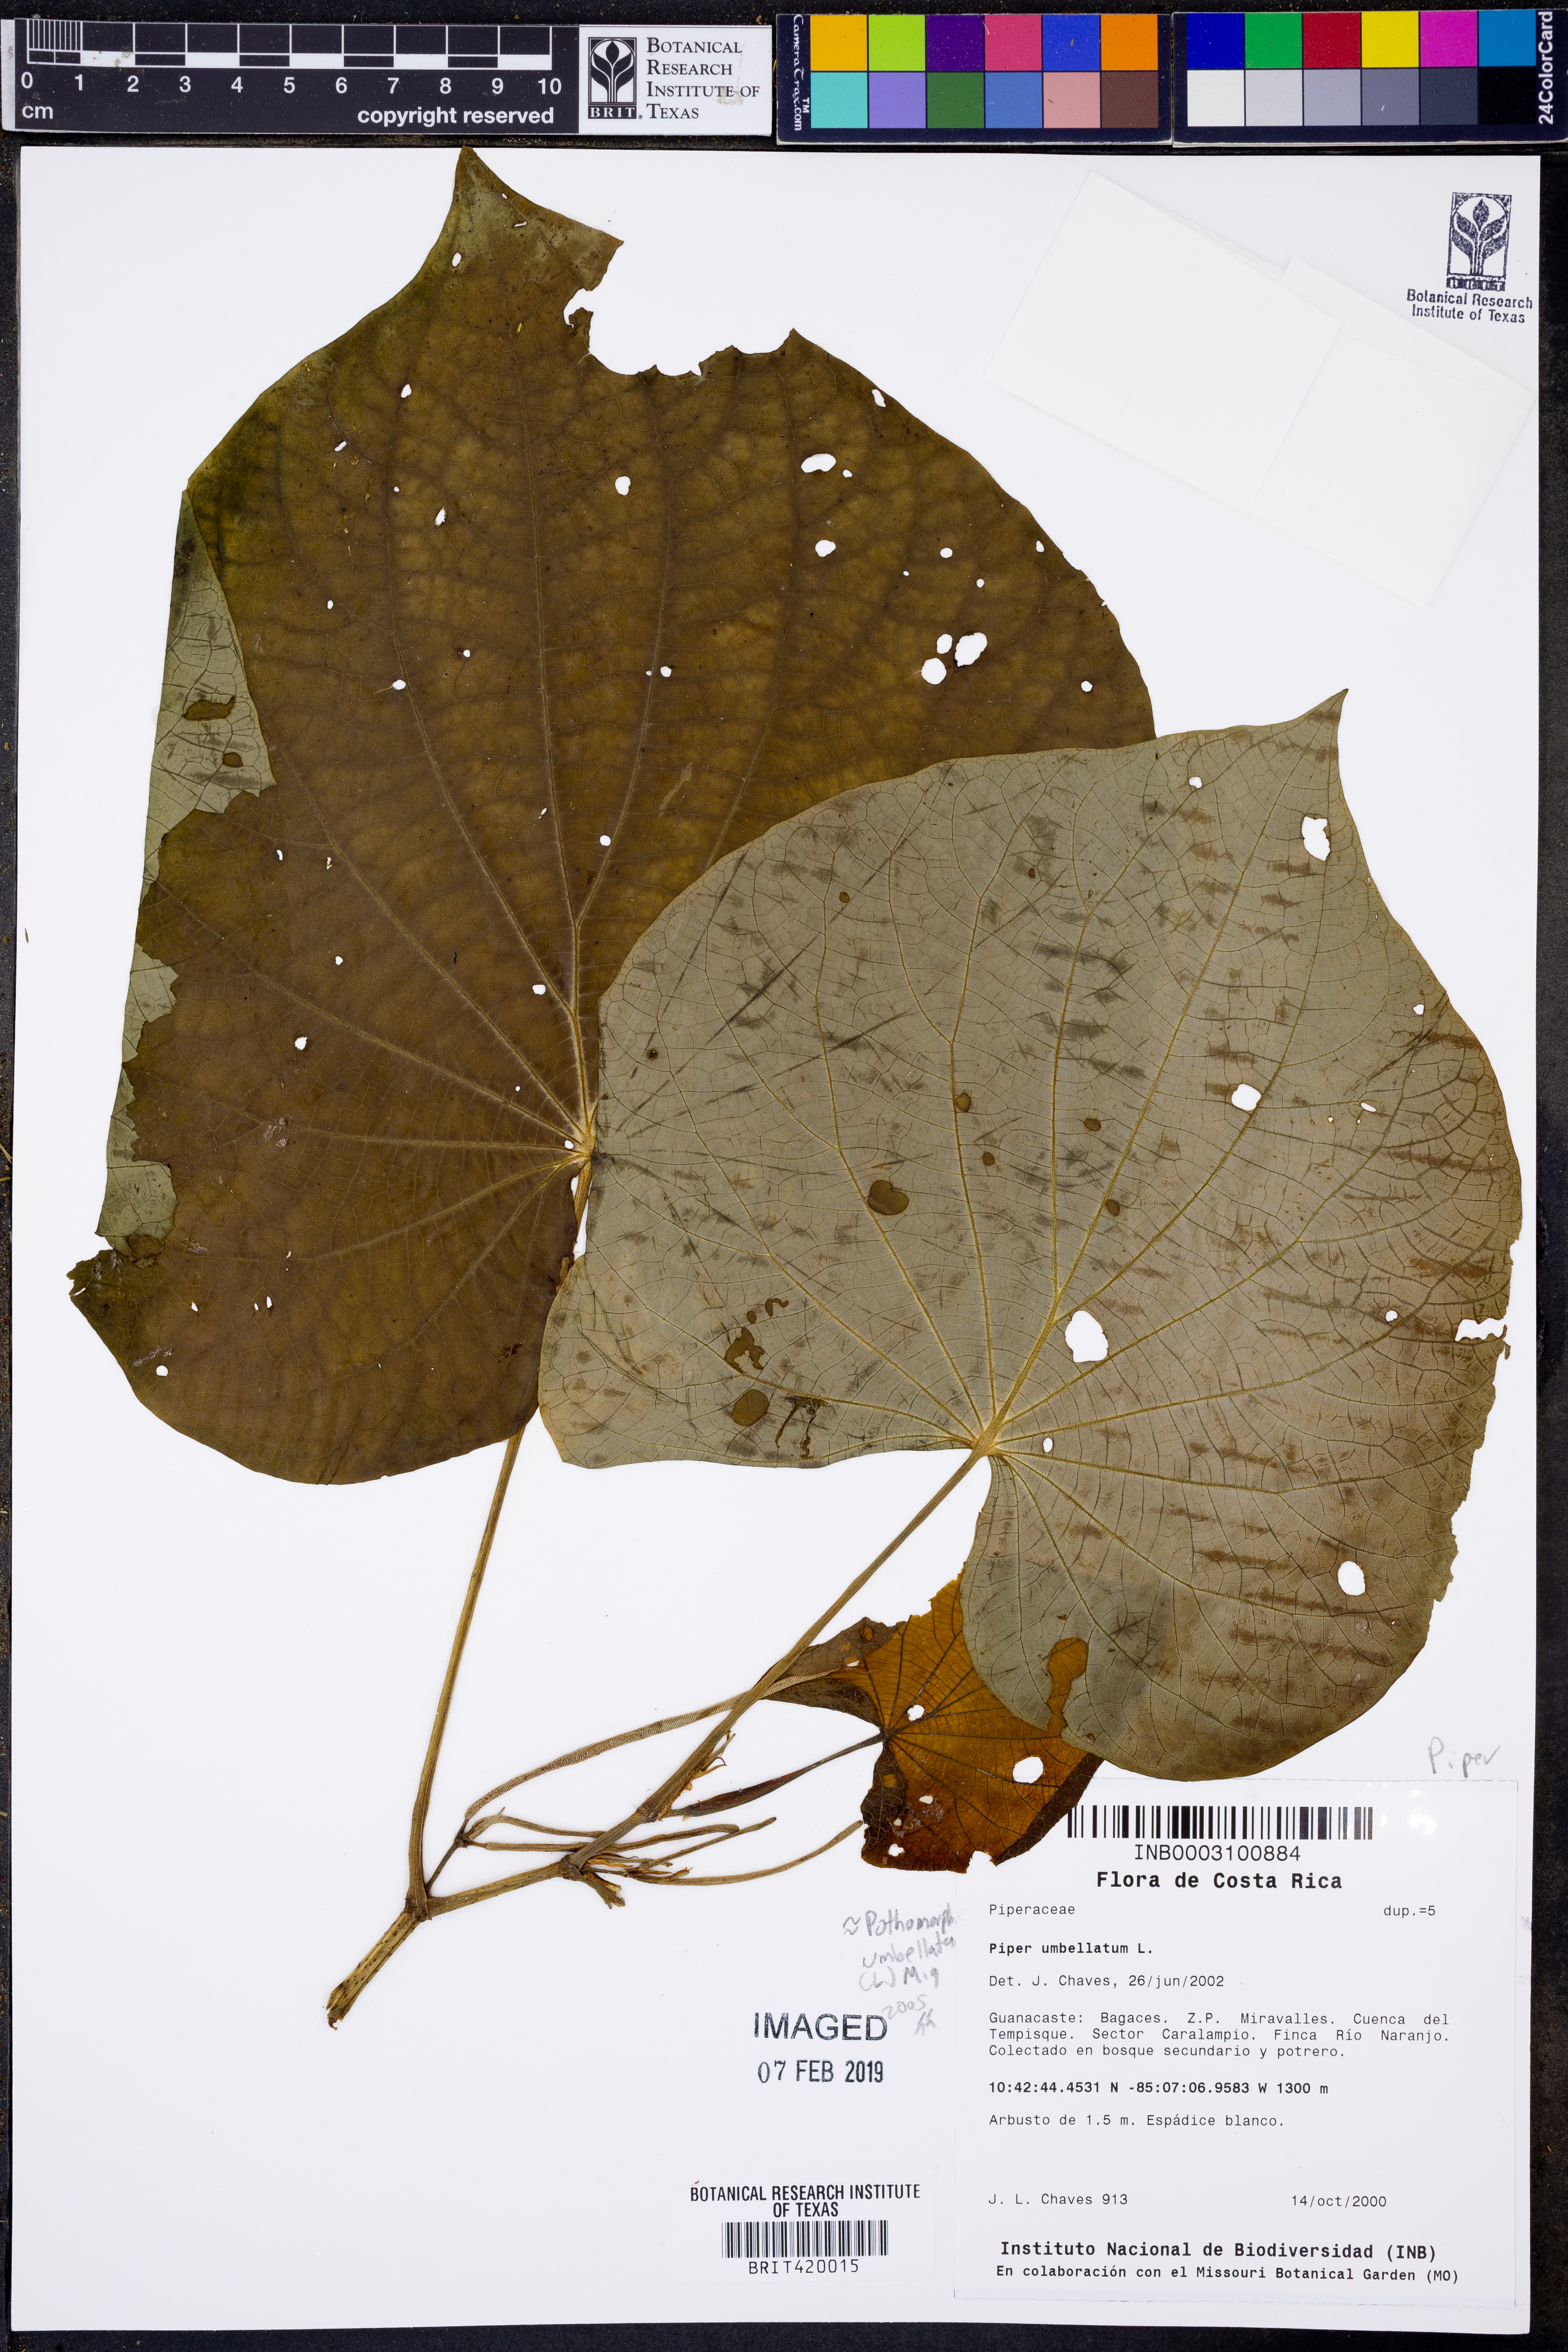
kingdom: Plantae
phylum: Tracheophyta
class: Magnoliopsida
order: Piperales
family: Piperaceae
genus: Piper
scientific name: Piper umbellatum
